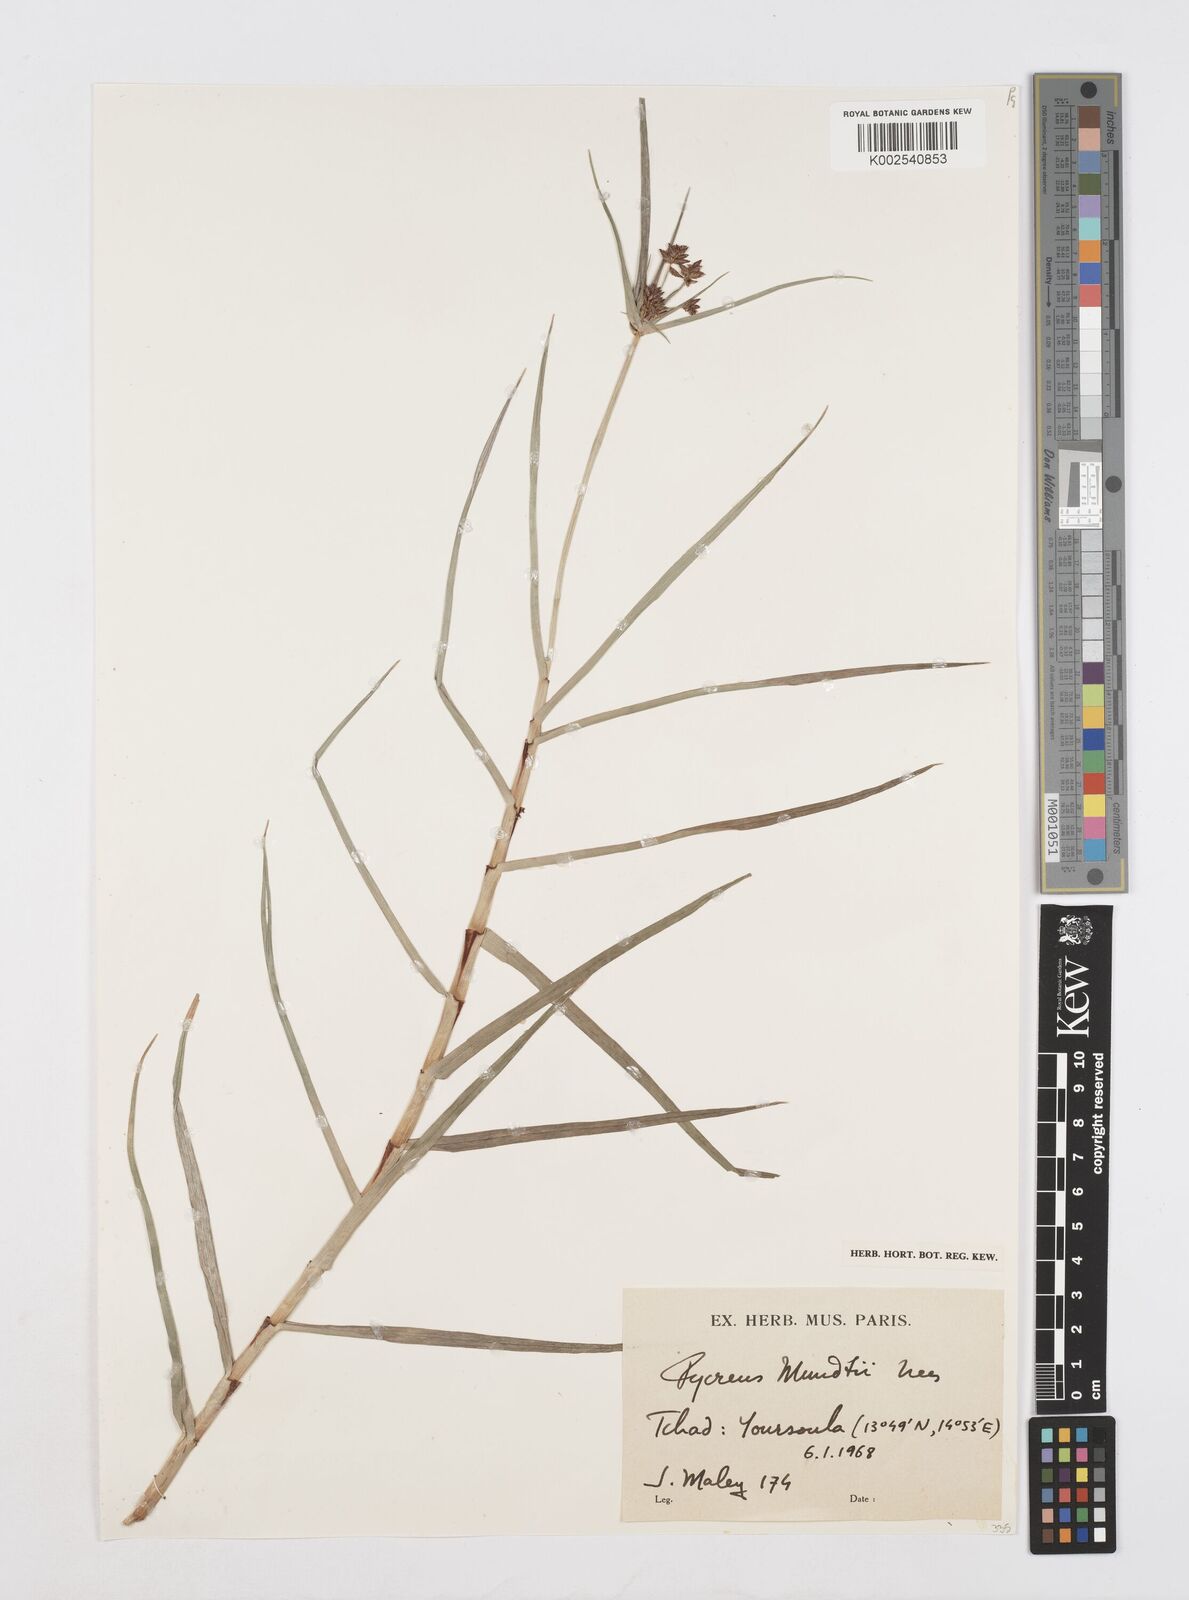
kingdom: Plantae
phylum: Tracheophyta
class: Liliopsida
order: Poales
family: Cyperaceae
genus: Cyperus
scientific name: Cyperus mundii
